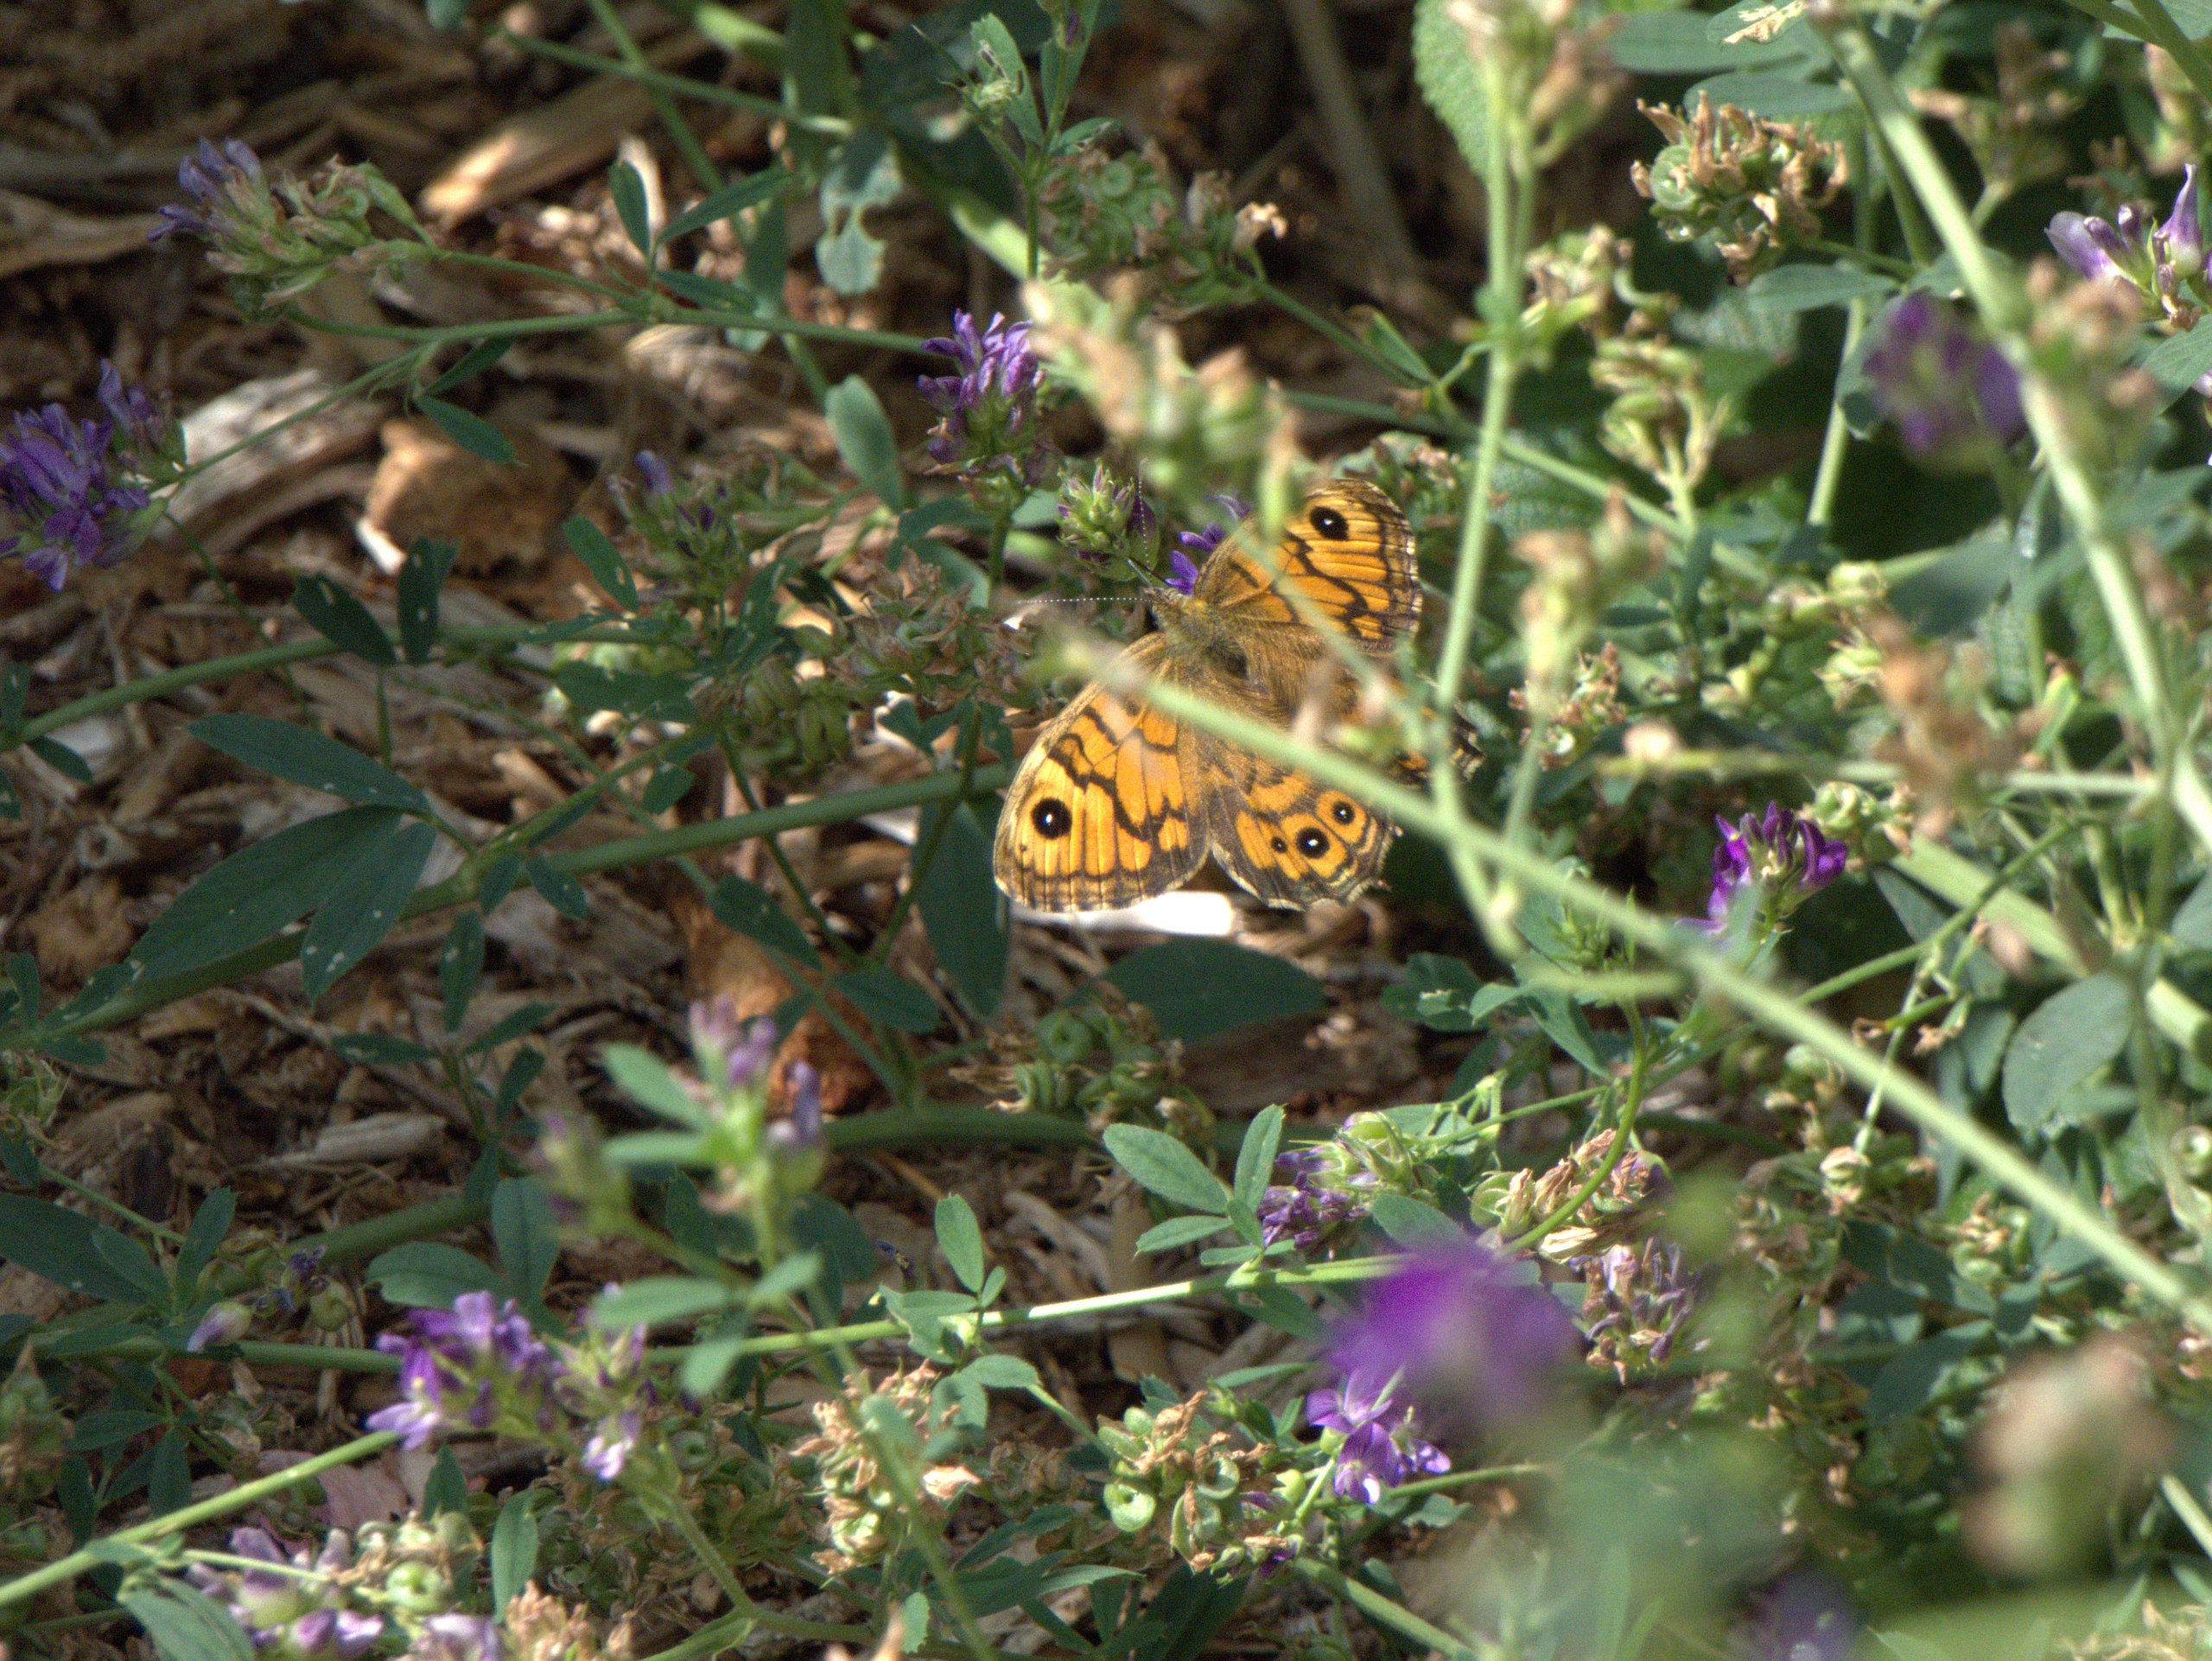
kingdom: Animalia
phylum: Arthropoda
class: Insecta
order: Lepidoptera
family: Nymphalidae
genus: Pararge
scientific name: Pararge Lasiommata megera
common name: Vejrandøje
